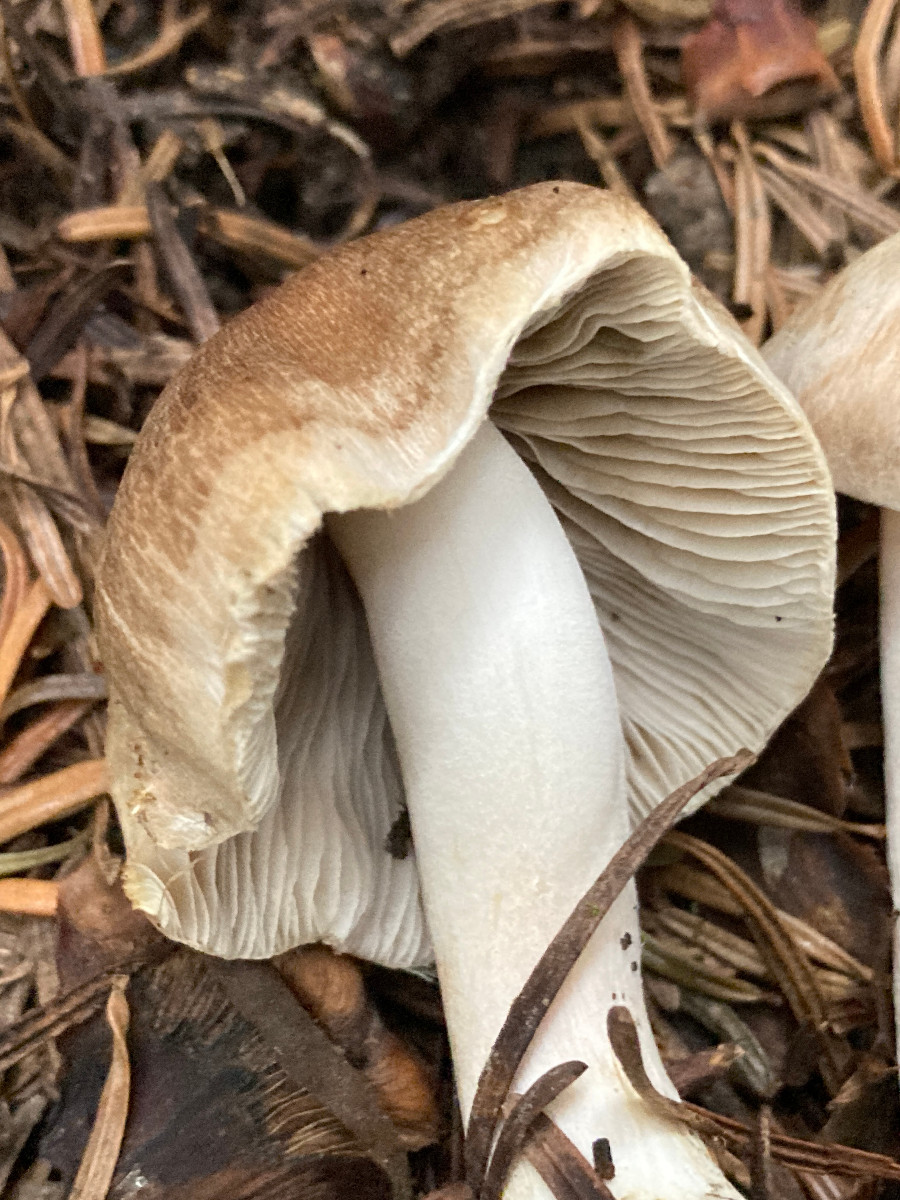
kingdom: Fungi
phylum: Basidiomycota
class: Agaricomycetes
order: Agaricales
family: Inocybaceae
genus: Inocybe
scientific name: Inocybe
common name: trævlhat
